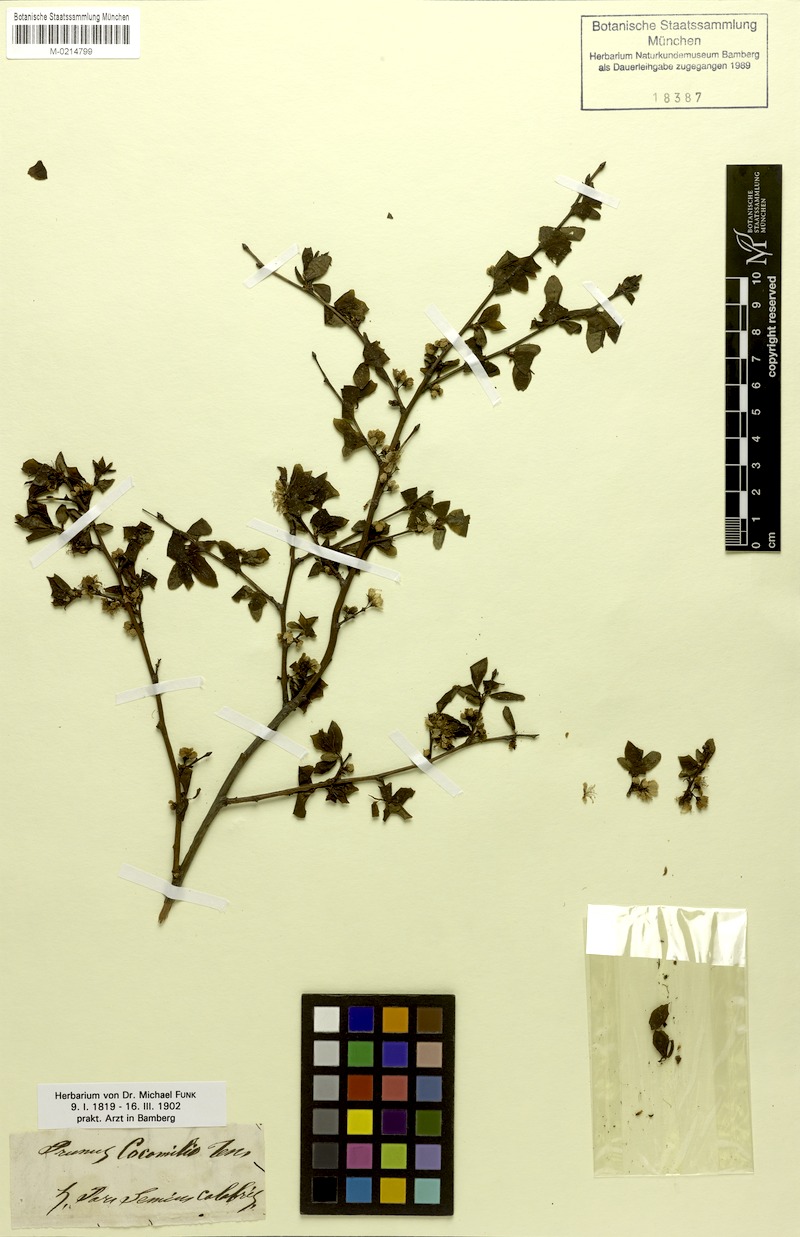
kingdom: Plantae
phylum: Tracheophyta
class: Magnoliopsida
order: Rosales
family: Rosaceae
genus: Prunus
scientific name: Prunus cocomilia
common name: Italian plum
